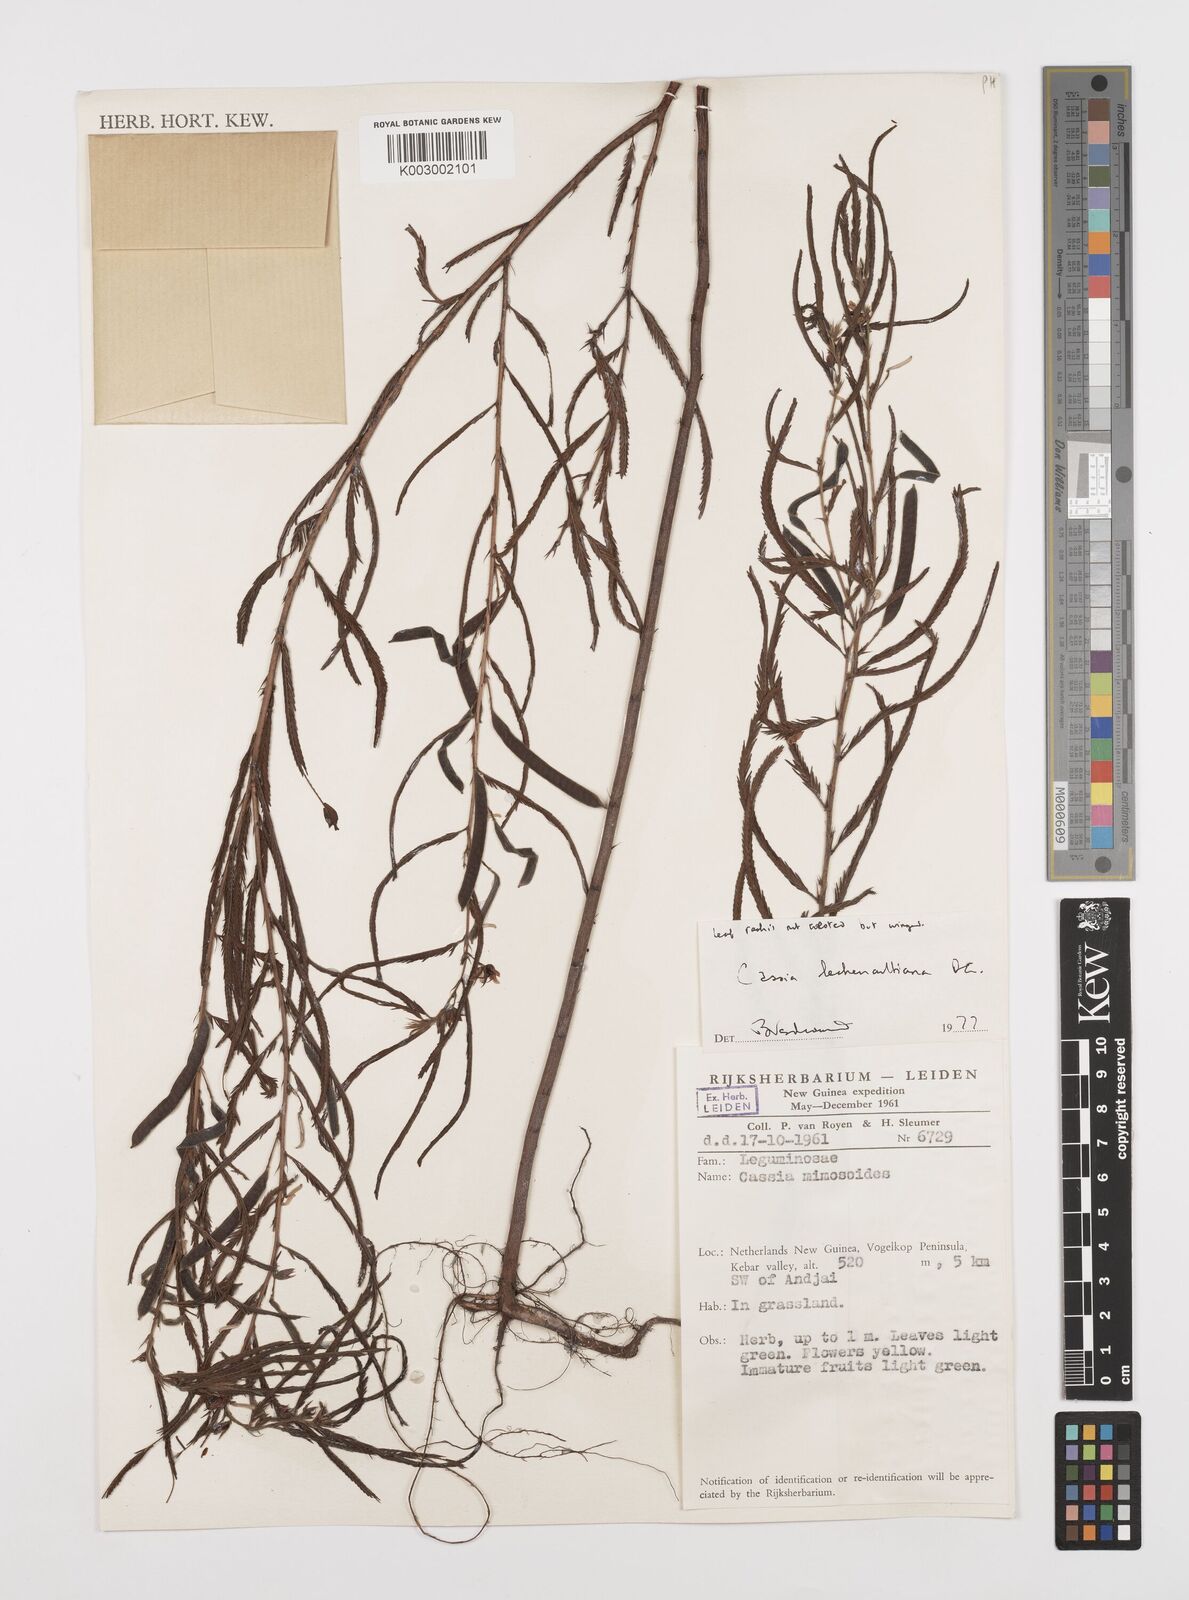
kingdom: Plantae
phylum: Tracheophyta
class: Magnoliopsida
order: Fabales
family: Fabaceae
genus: Chamaecrista
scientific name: Chamaecrista mimosoides
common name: Fish-bone cassia
